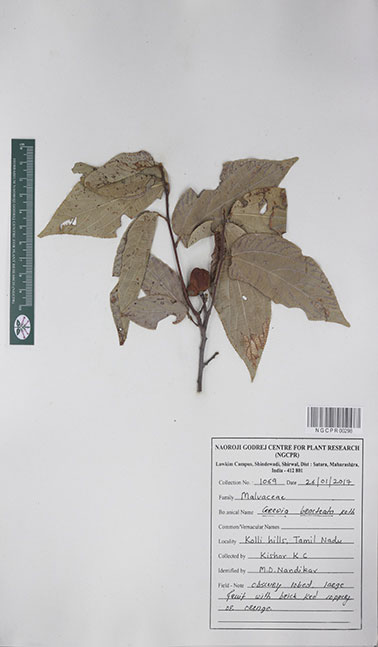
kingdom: Plantae
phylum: Tracheophyta
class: Magnoliopsida
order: Malvales
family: Malvaceae
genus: Grewia
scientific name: Grewia bracteata
